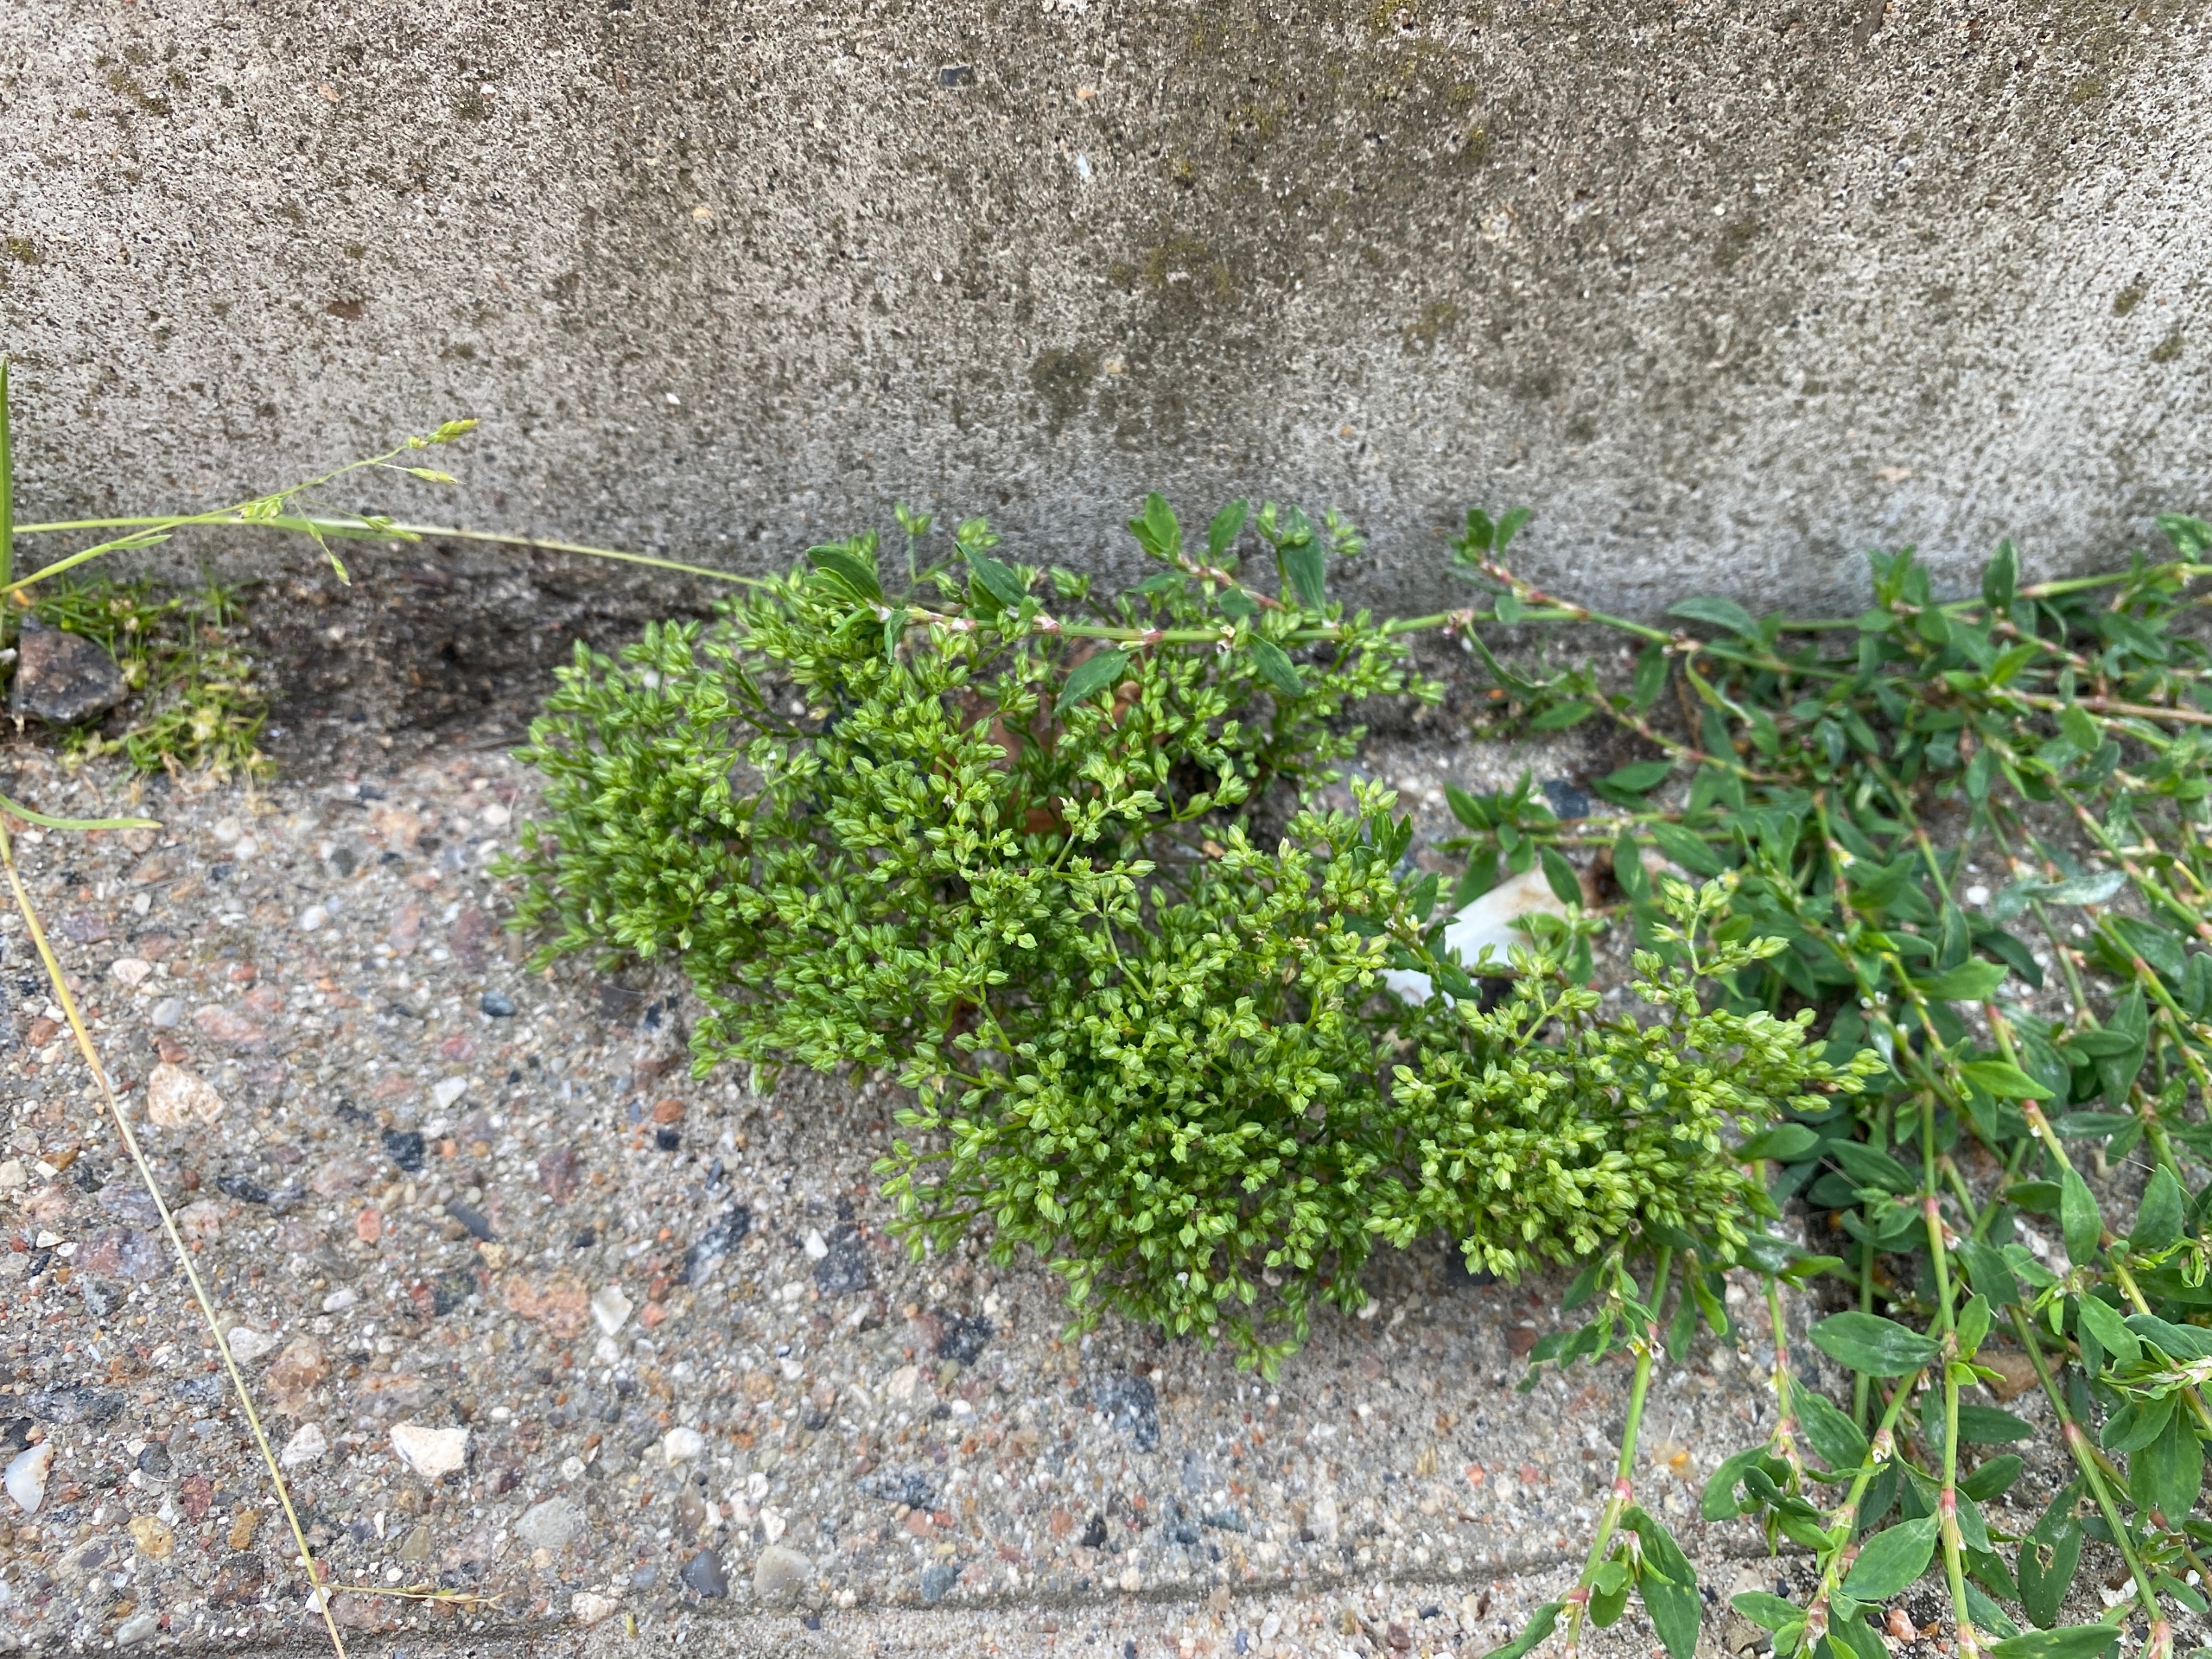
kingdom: Plantae
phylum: Tracheophyta
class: Magnoliopsida
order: Caryophyllales
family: Caryophyllaceae
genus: Polycarpon
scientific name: Polycarpon tetraphyllum
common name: Firbladet mangefrø
